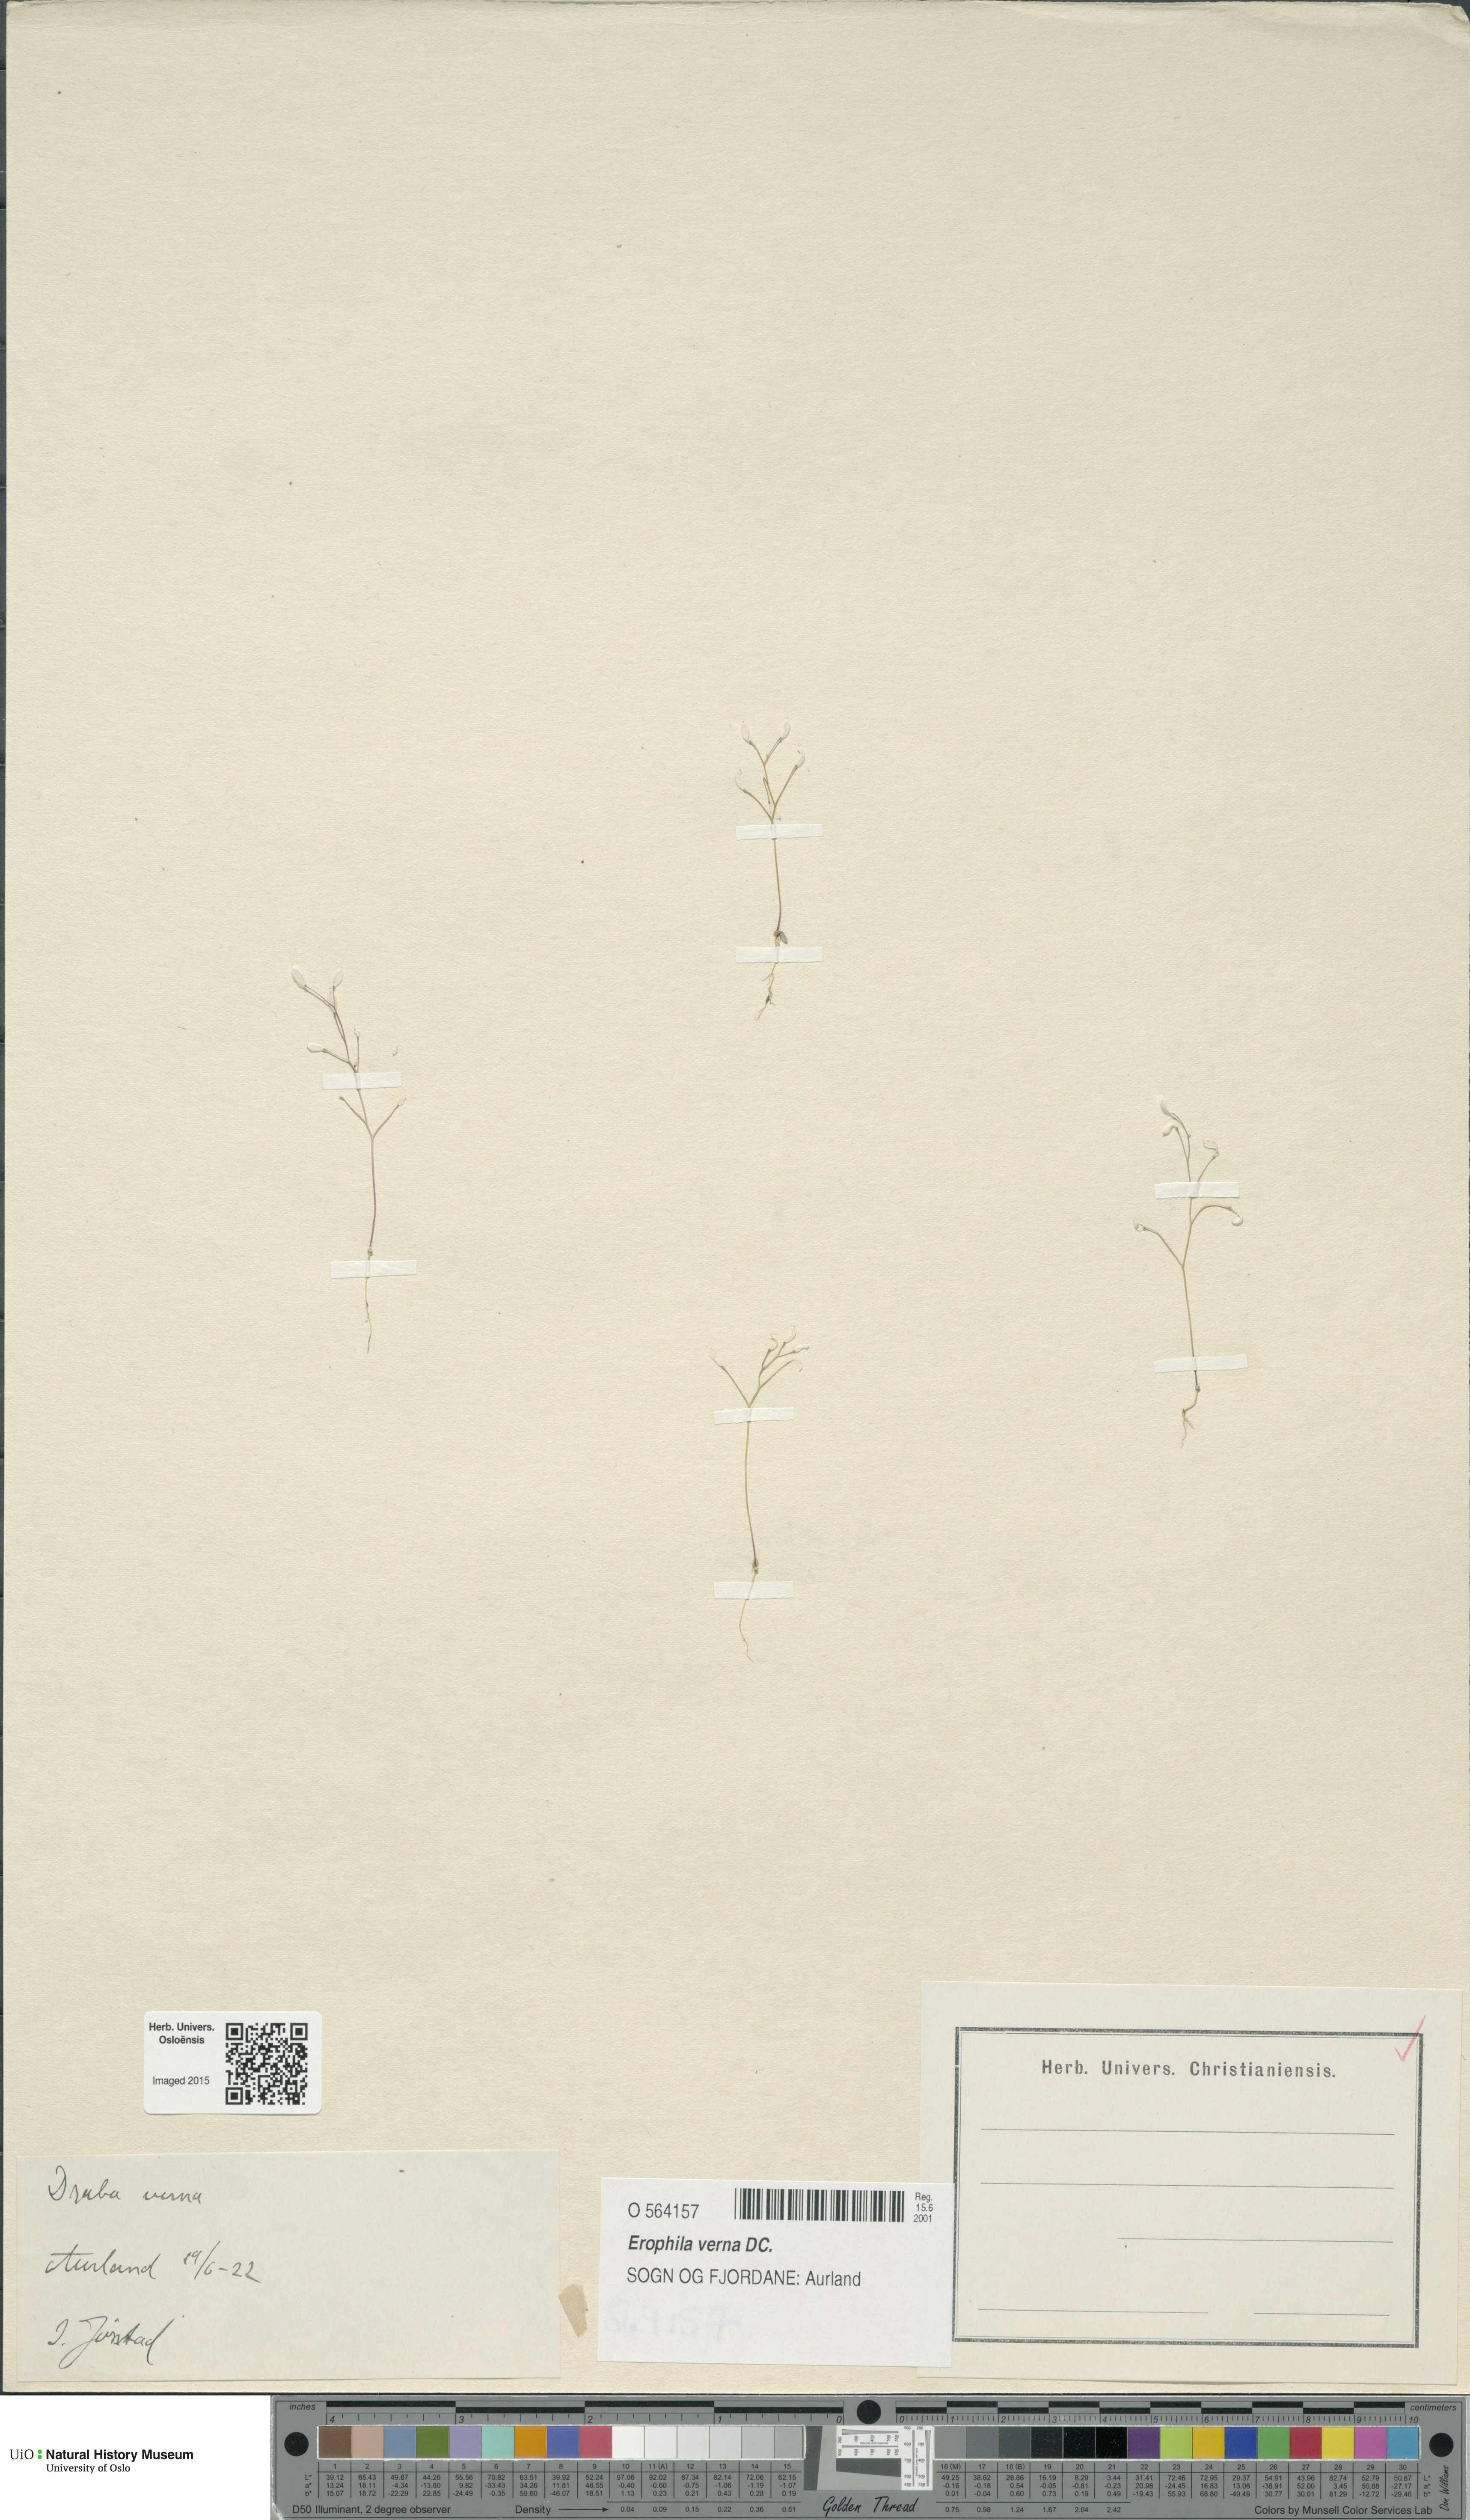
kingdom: Plantae
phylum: Tracheophyta
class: Magnoliopsida
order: Brassicales
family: Brassicaceae
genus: Draba
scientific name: Draba verna
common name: Spring draba
